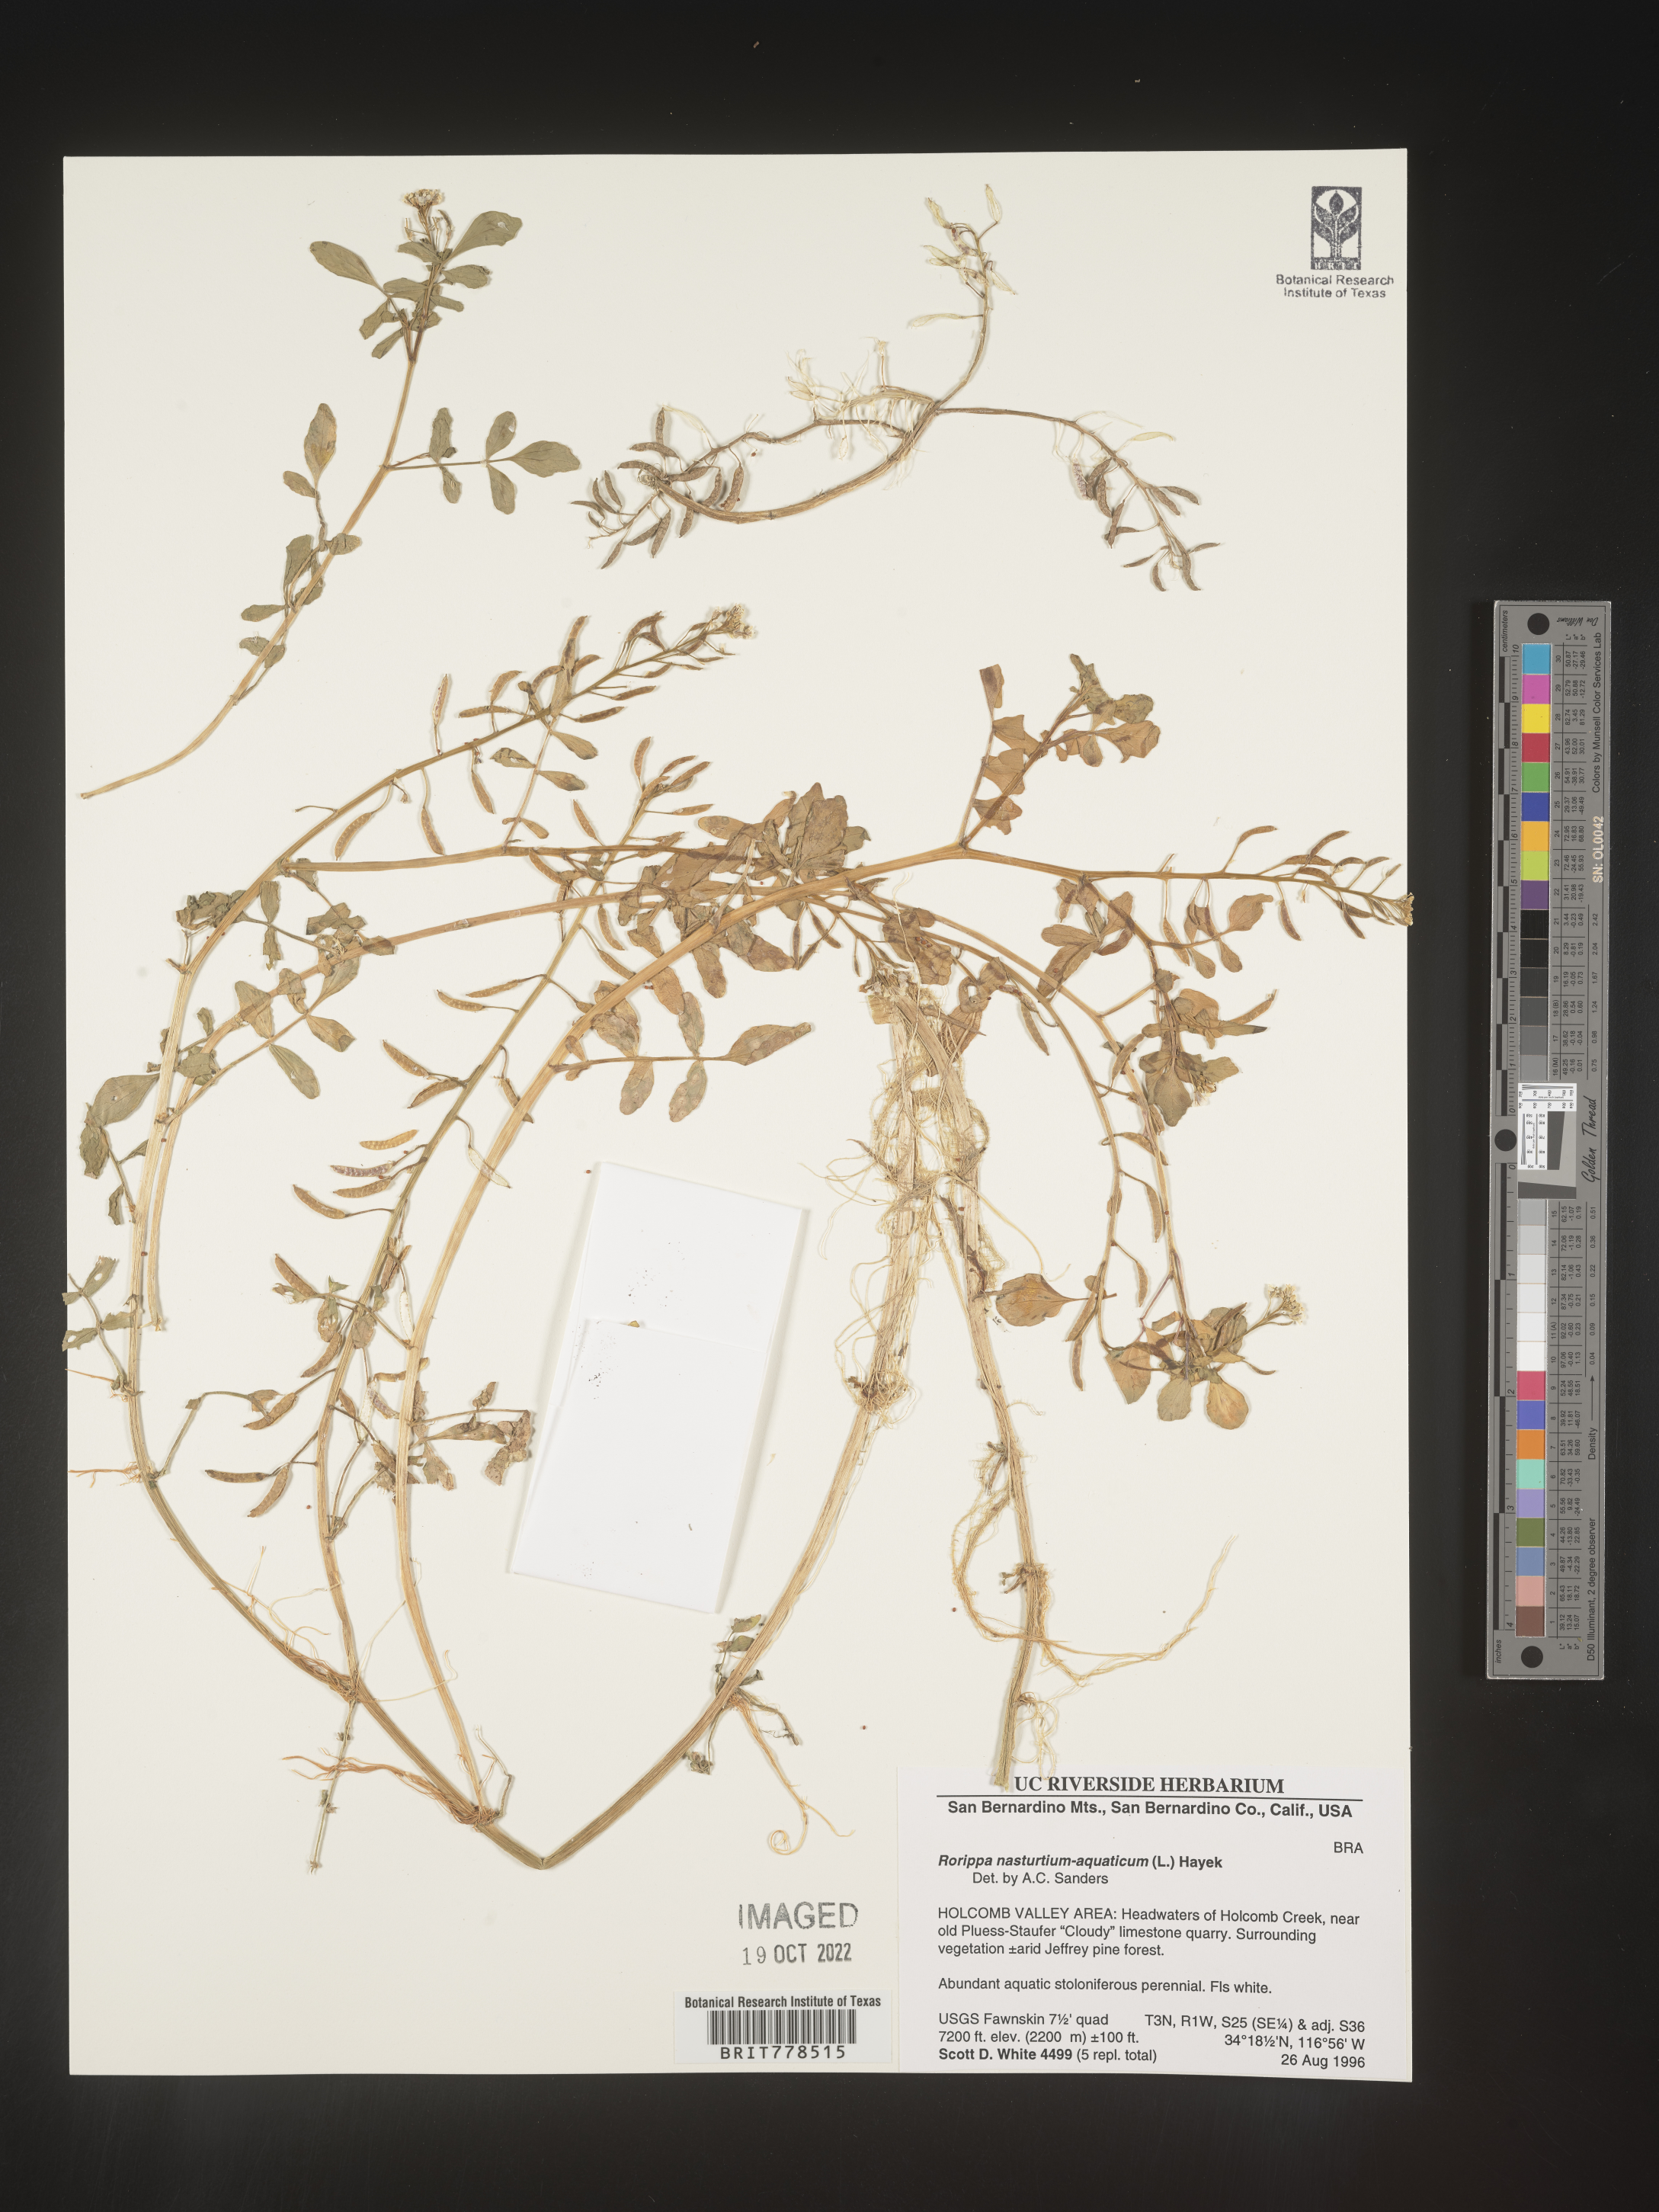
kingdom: Plantae
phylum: Tracheophyta
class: Magnoliopsida
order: Brassicales
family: Brassicaceae
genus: Nasturtium
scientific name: Nasturtium officinale
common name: Watercress
